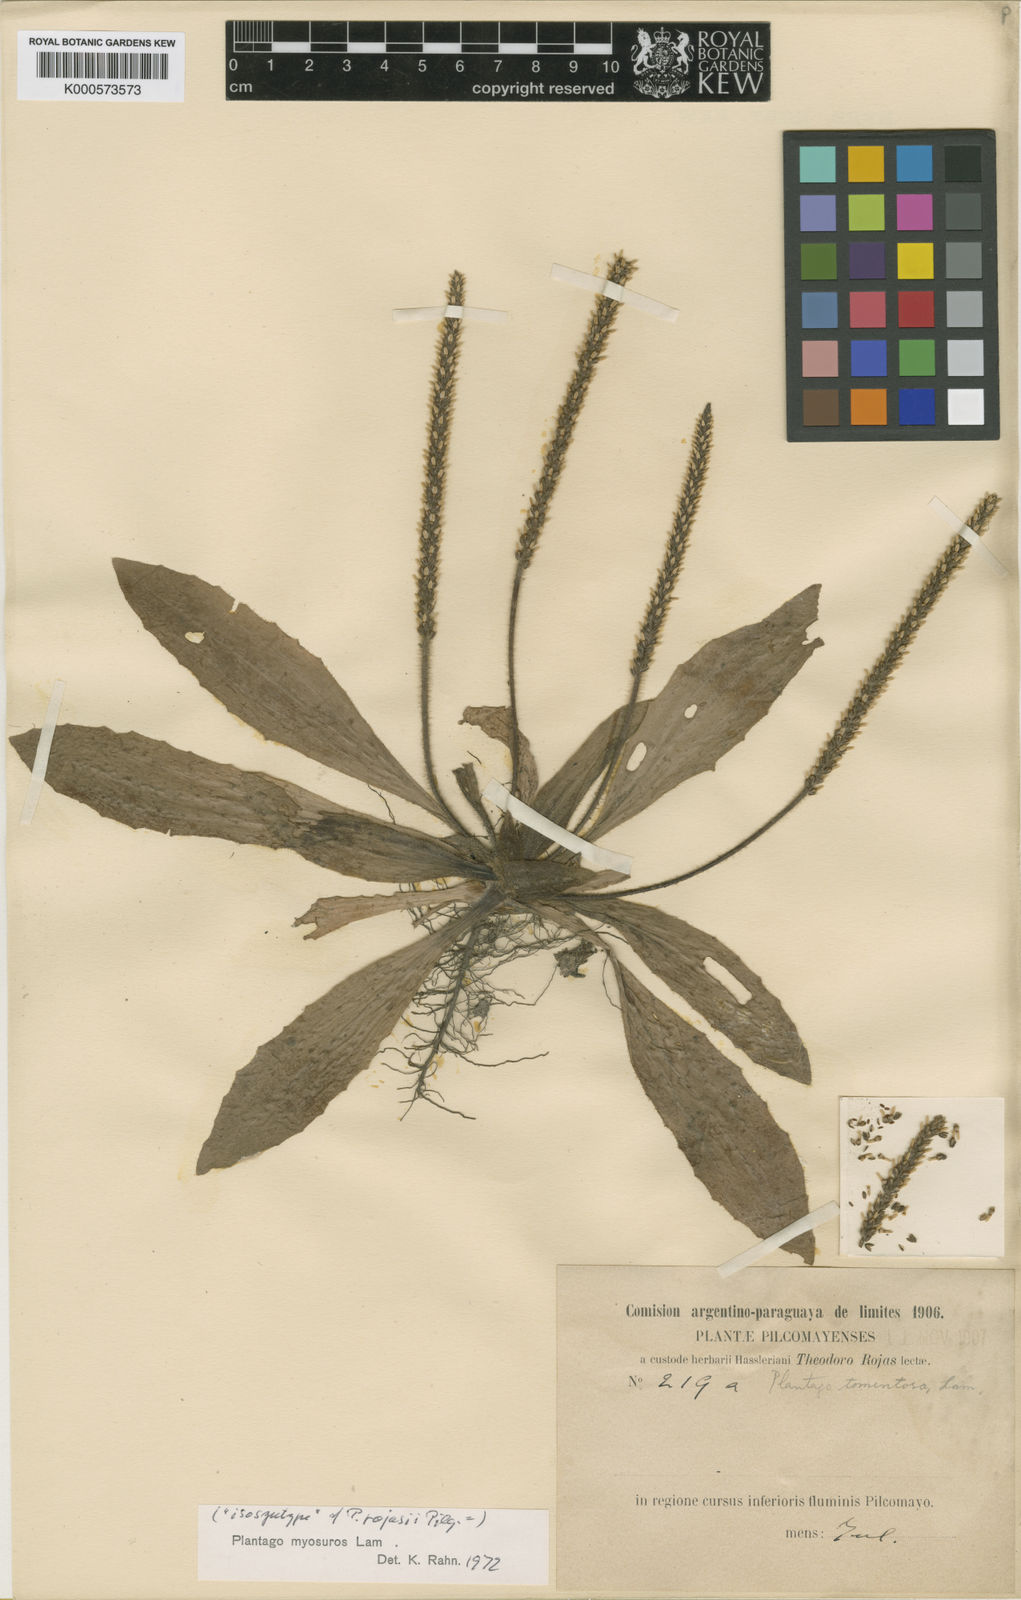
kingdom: Plantae
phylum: Tracheophyta
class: Magnoliopsida
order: Lamiales
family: Plantaginaceae
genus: Plantago
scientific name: Plantago myosuros
